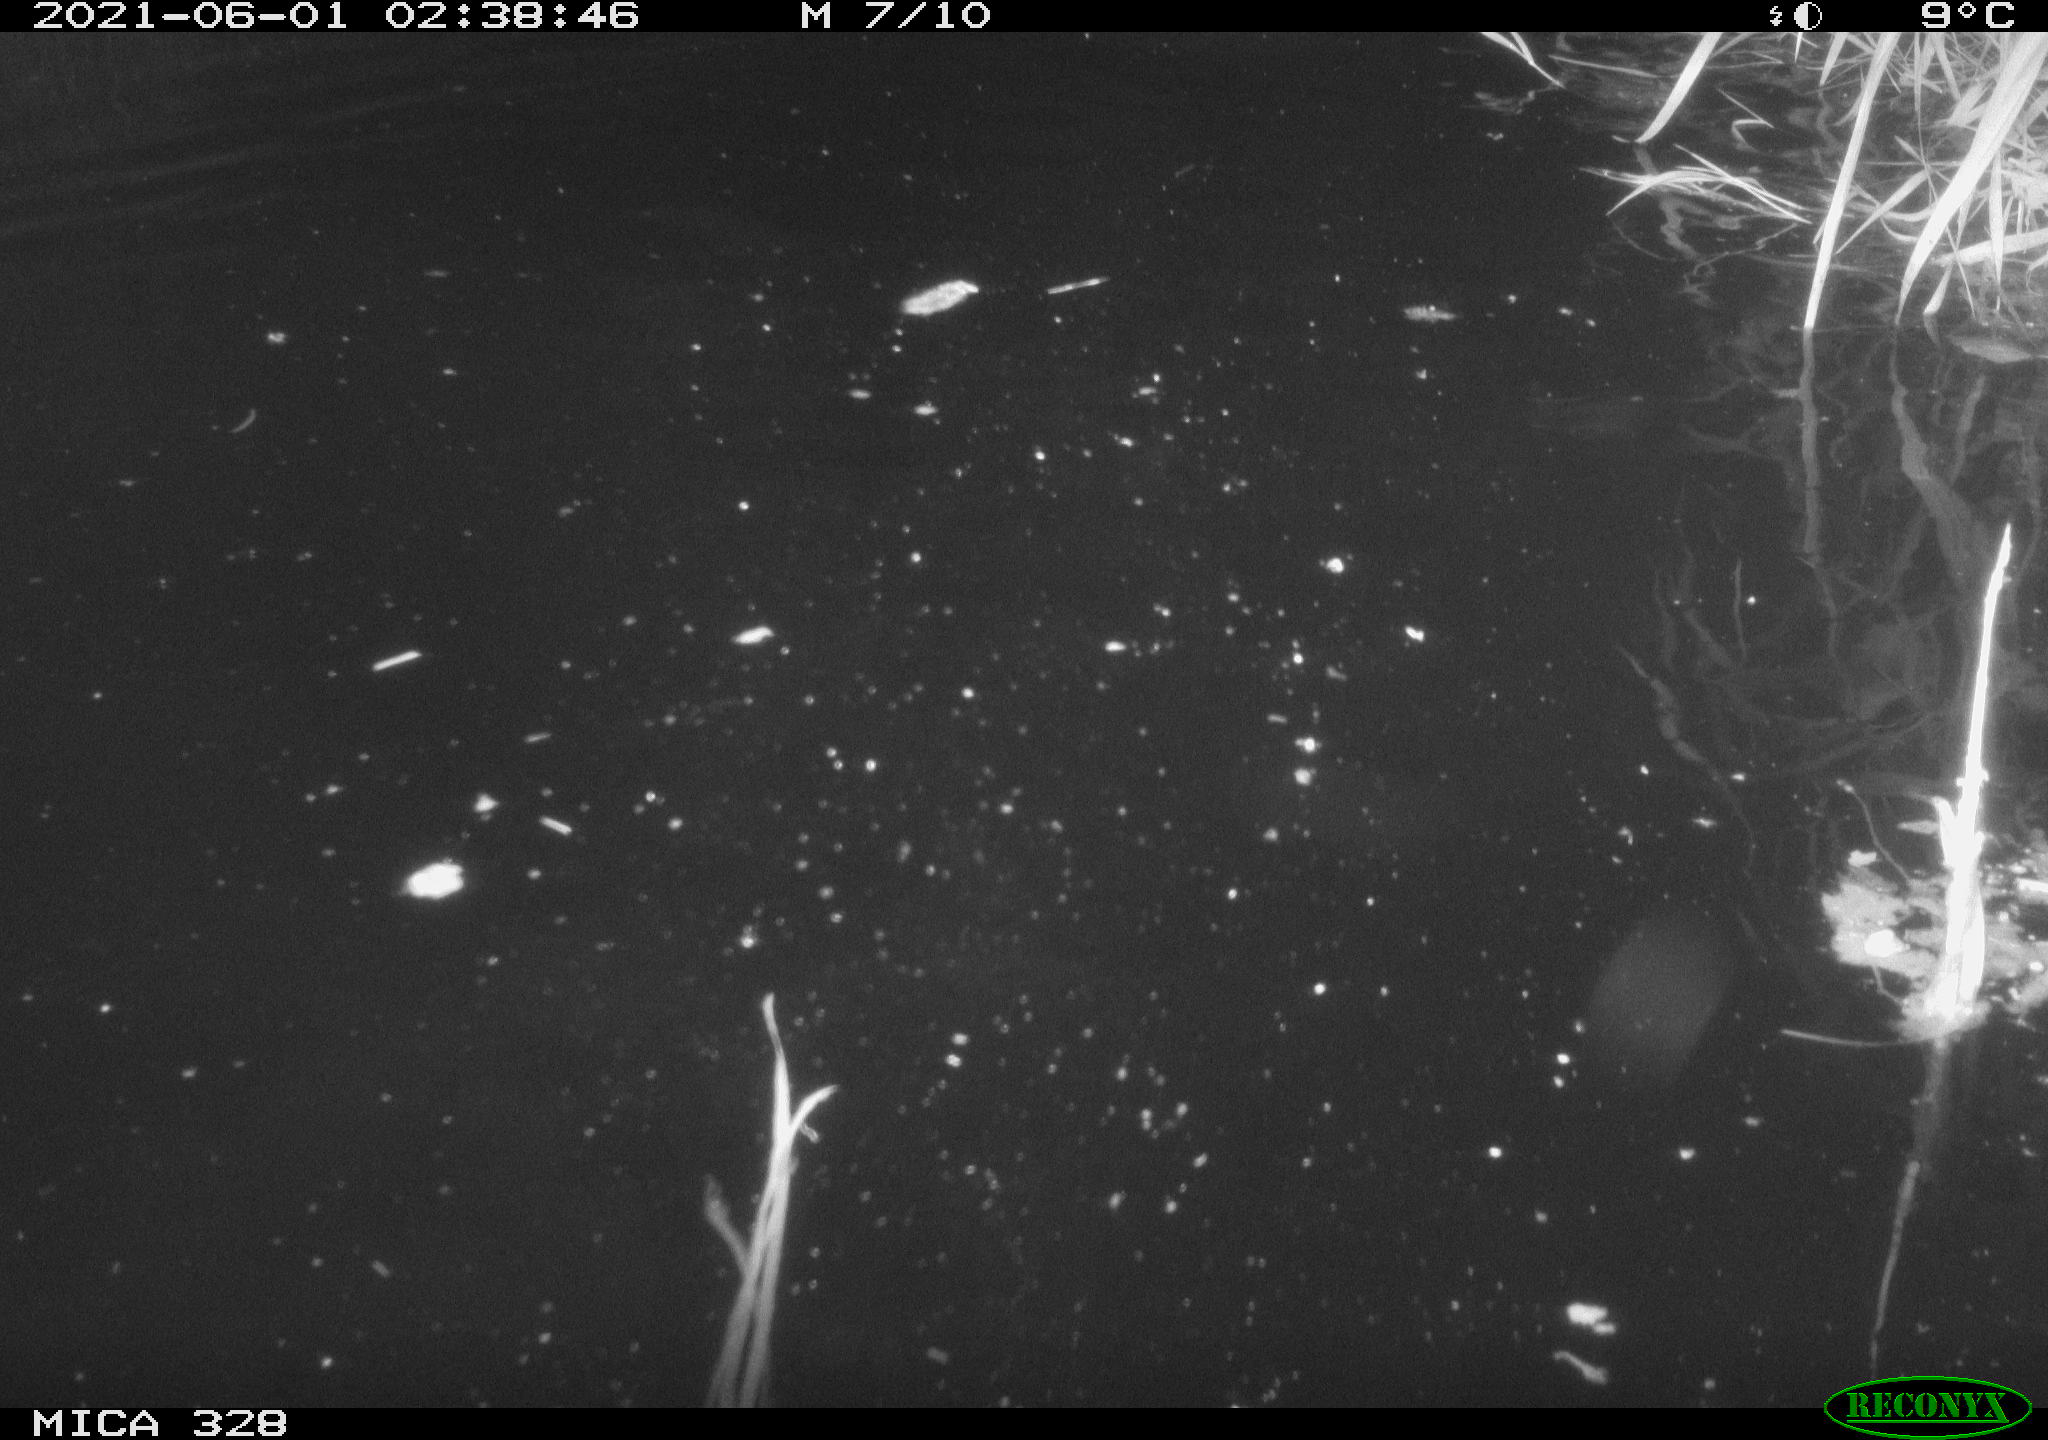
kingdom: Animalia
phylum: Chordata
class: Mammalia
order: Rodentia
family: Cricetidae
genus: Ondatra
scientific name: Ondatra zibethicus
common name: Muskrat
